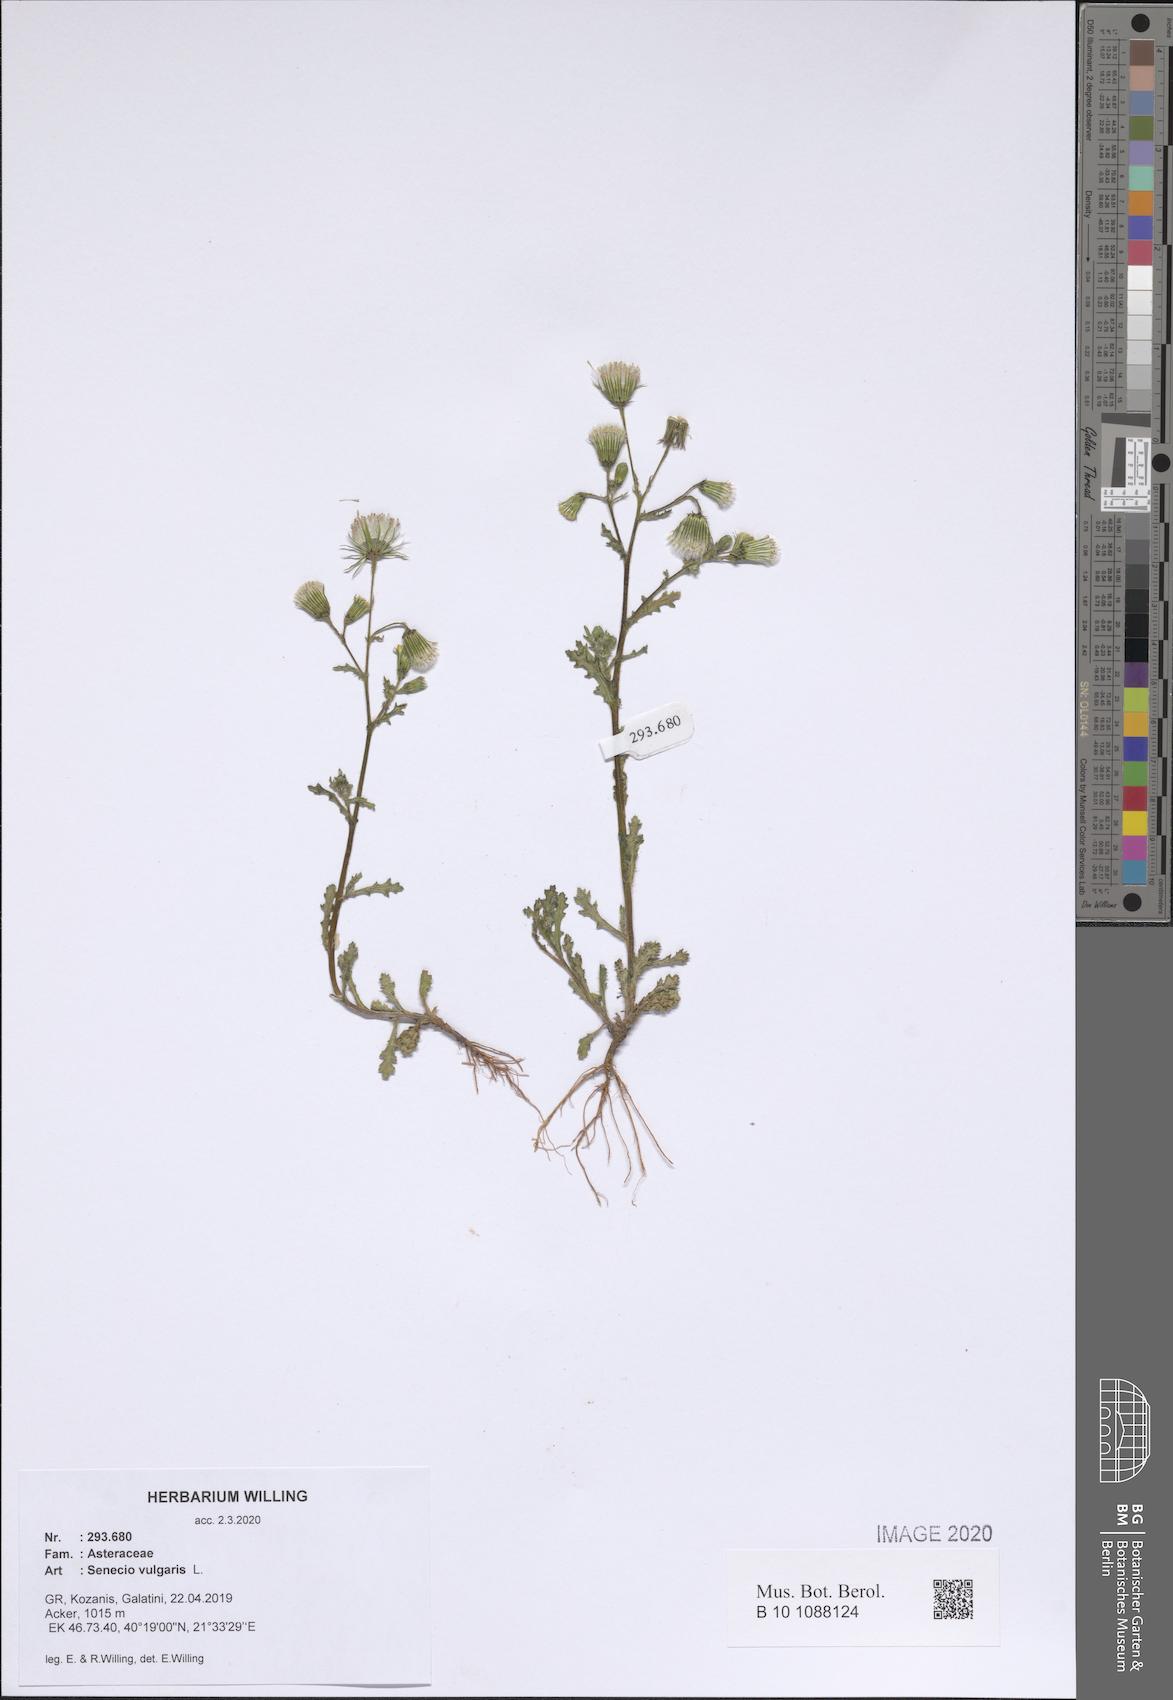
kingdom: Plantae
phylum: Tracheophyta
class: Magnoliopsida
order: Asterales
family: Asteraceae
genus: Senecio
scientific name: Senecio vulgaris
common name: Old-man-in-the-spring
